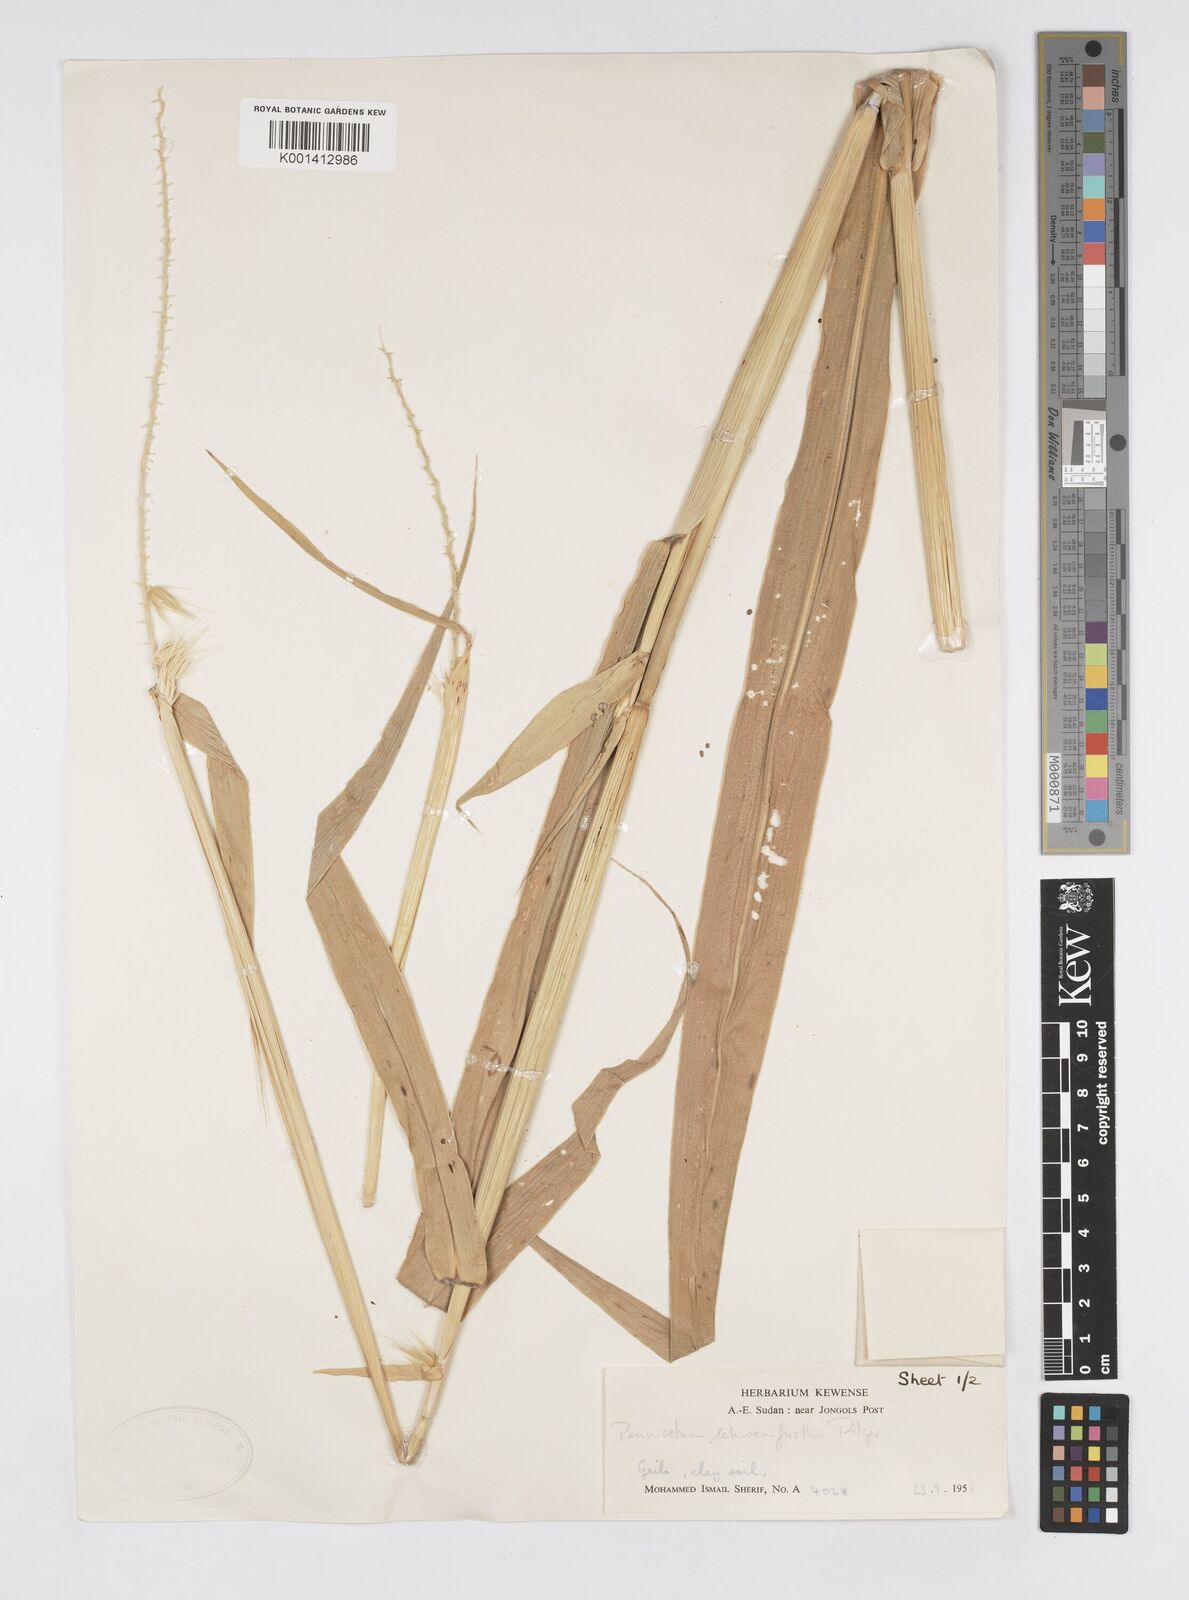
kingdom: Plantae
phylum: Tracheophyta
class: Liliopsida
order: Poales
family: Poaceae
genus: Cenchrus
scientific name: Cenchrus schweinfurthii
